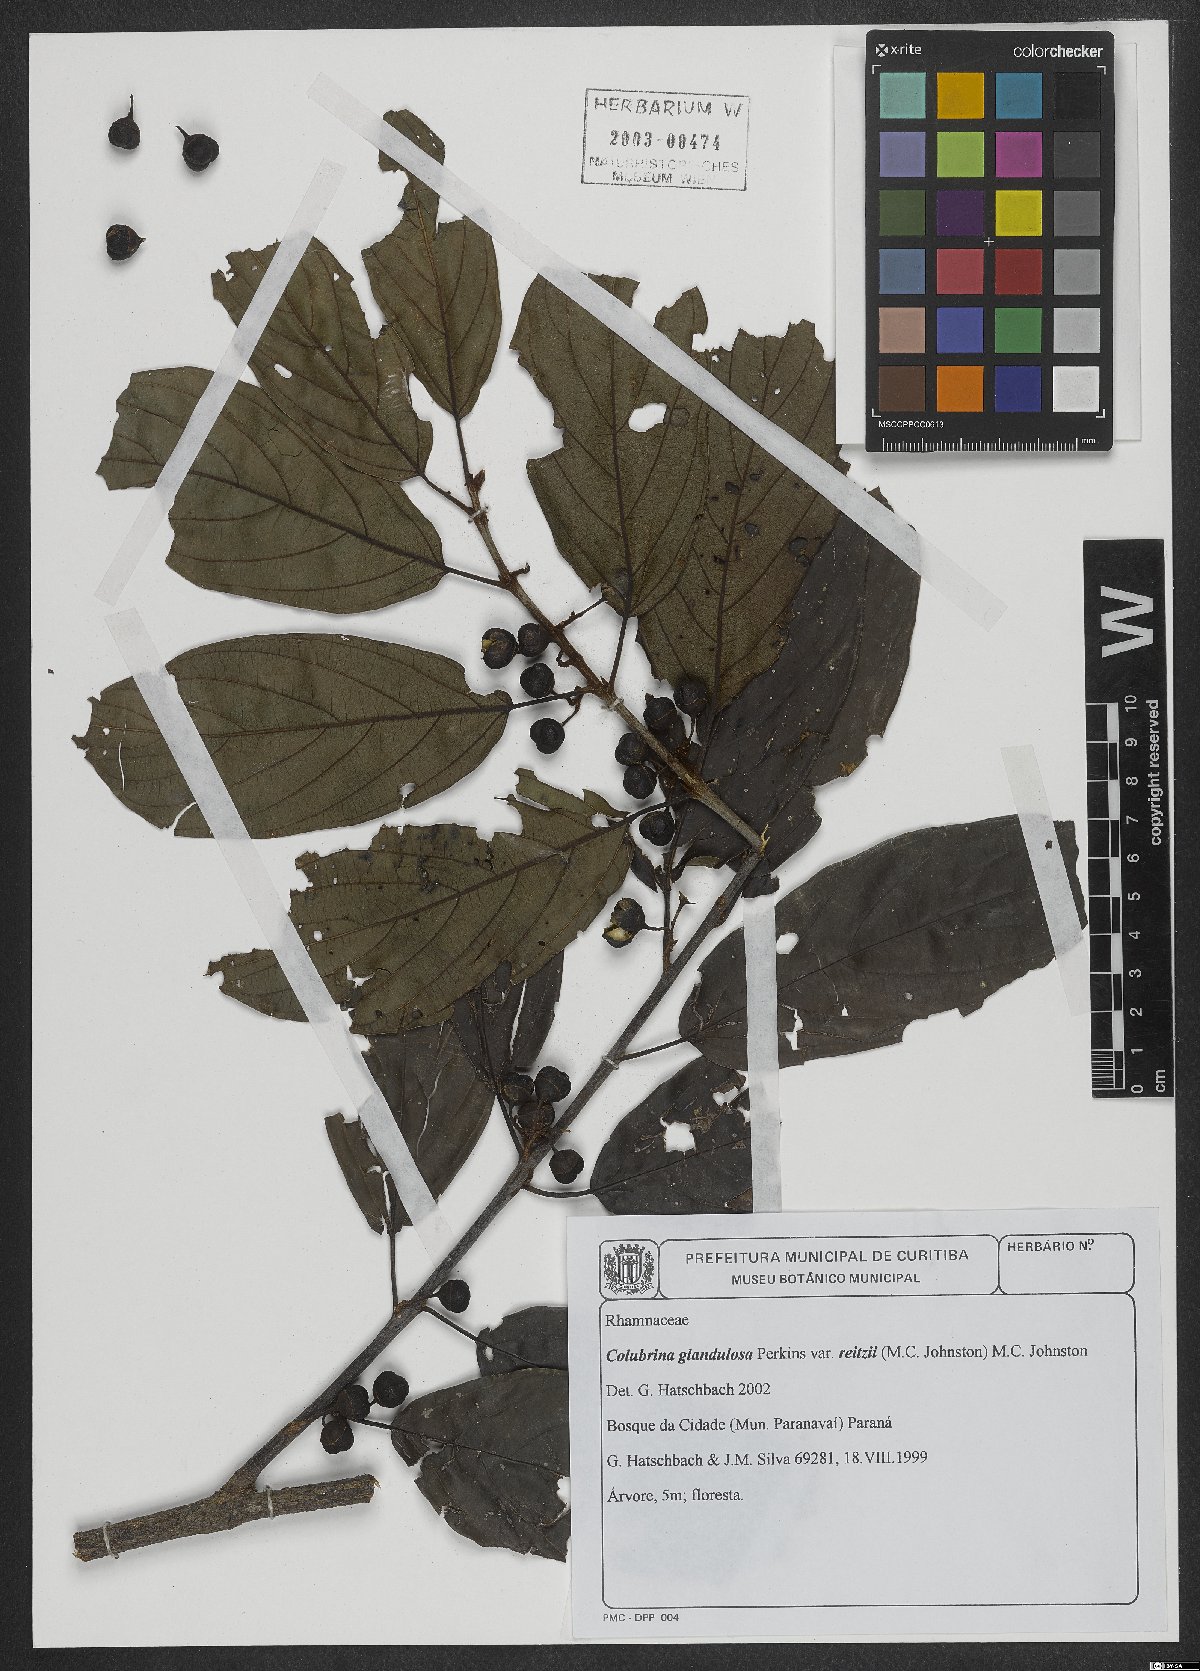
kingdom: Plantae
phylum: Tracheophyta
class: Magnoliopsida
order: Rosales
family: Rhamnaceae
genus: Colubrina
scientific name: Colubrina glandulosa
